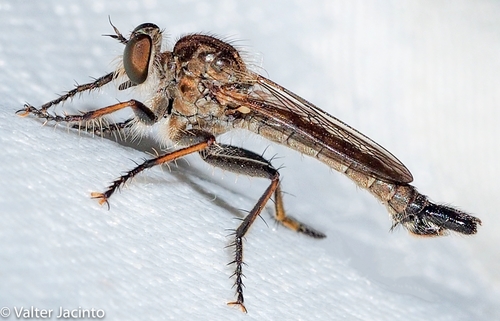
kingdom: Animalia
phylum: Arthropoda
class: Insecta
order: Diptera
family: Asilidae
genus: Machimus
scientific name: Machimus dasypygus
